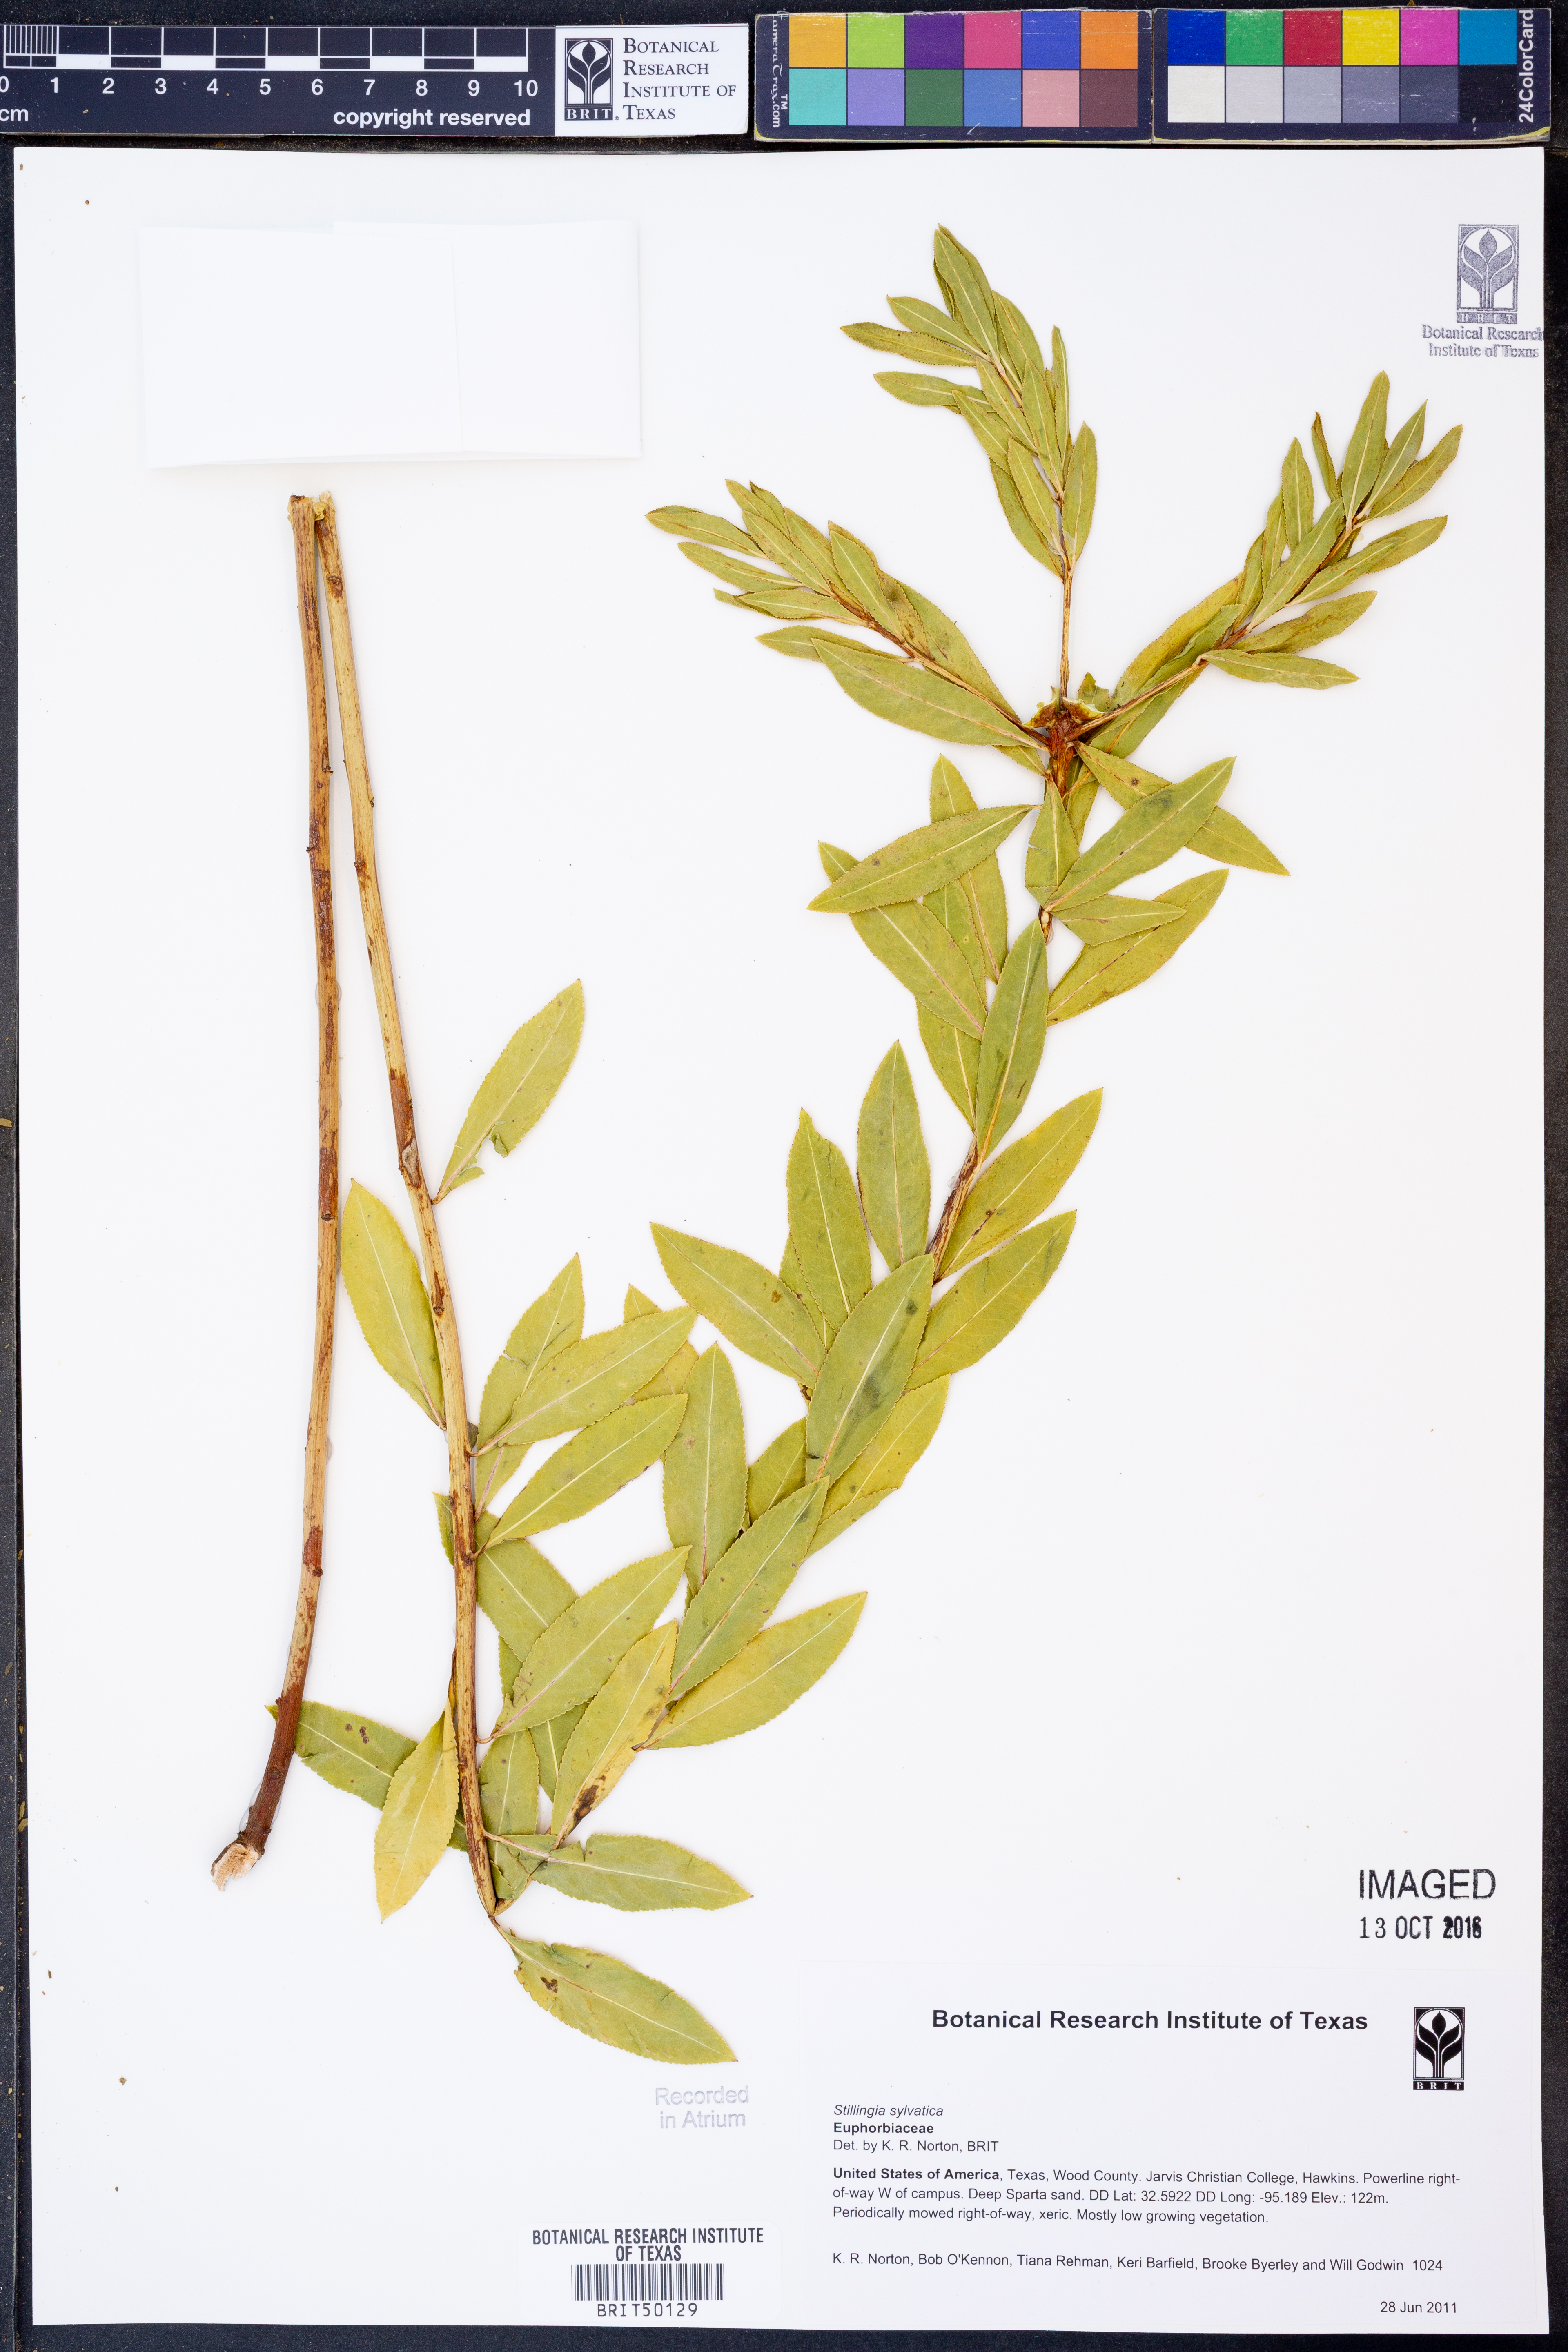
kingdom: Plantae
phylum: Tracheophyta
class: Magnoliopsida
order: Malpighiales
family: Euphorbiaceae
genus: Stillingia
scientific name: Stillingia sylvatica
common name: Queen's-delight
